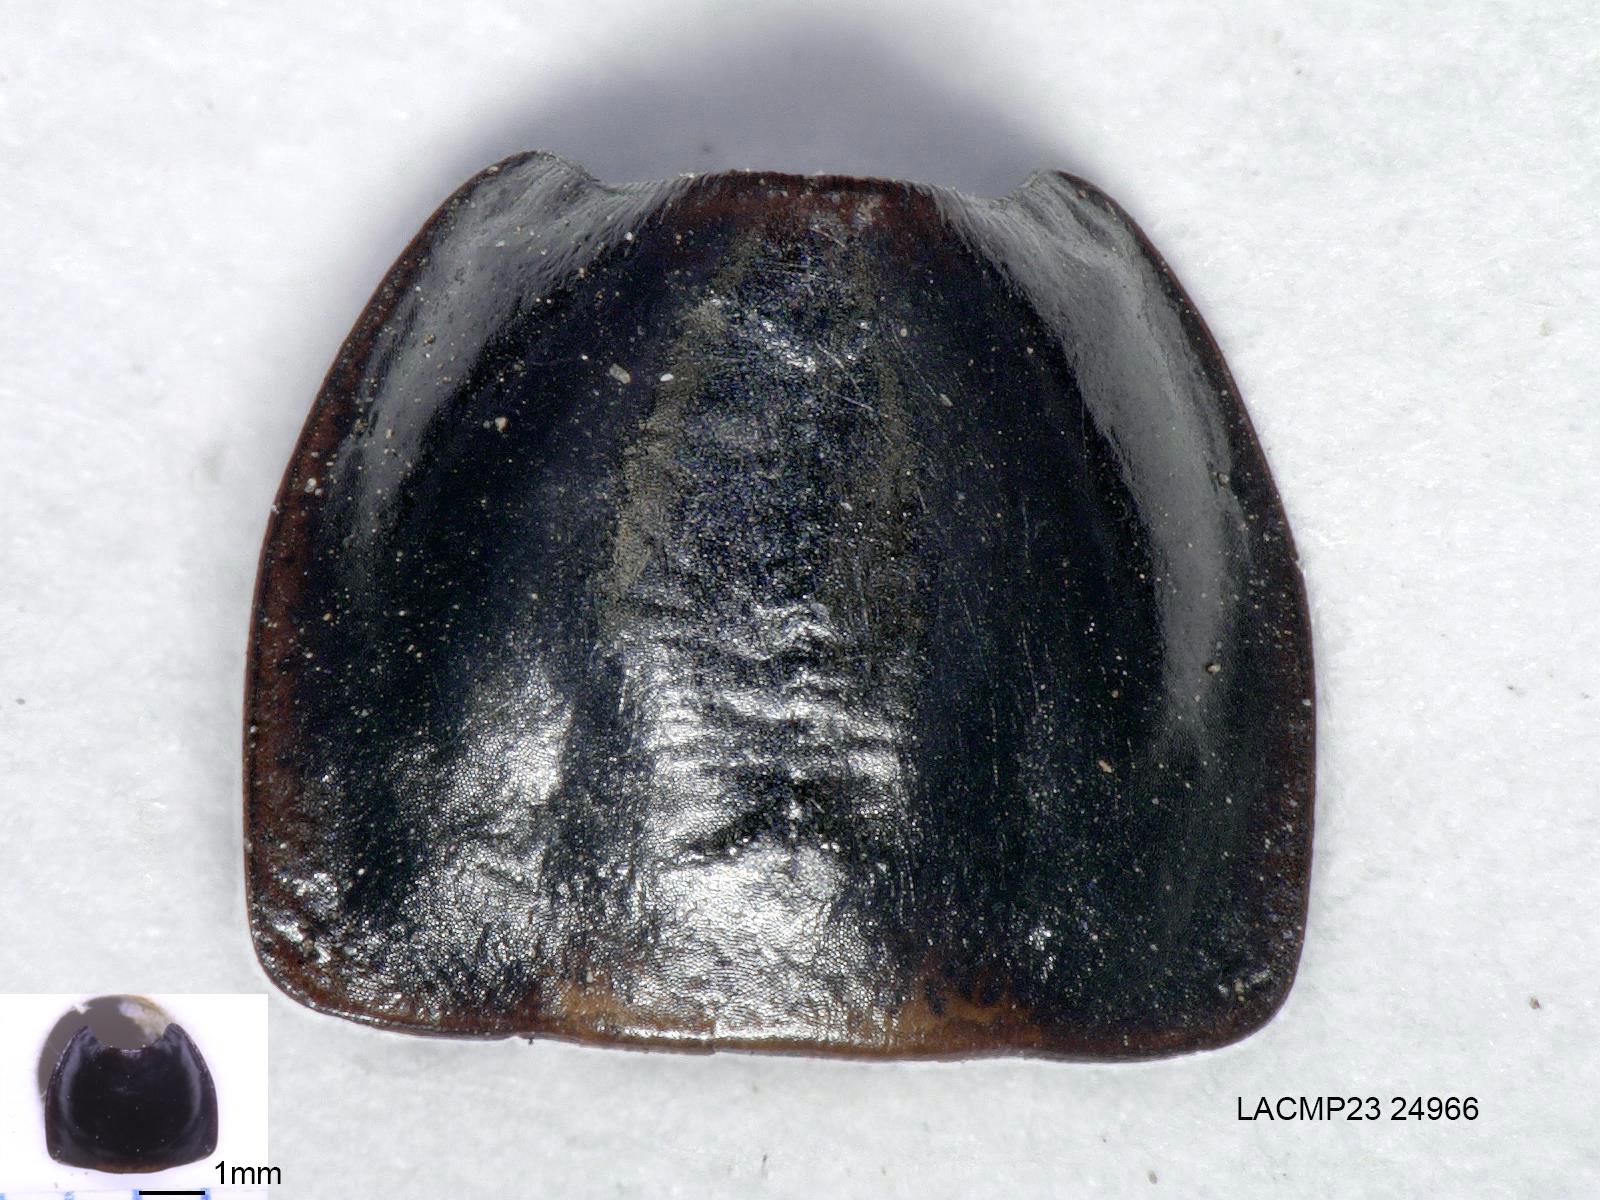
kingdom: Animalia
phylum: Arthropoda
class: Insecta
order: Coleoptera
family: Carabidae
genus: Calathus
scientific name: Calathus ruficollis
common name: Red-collared harp ground beetle
